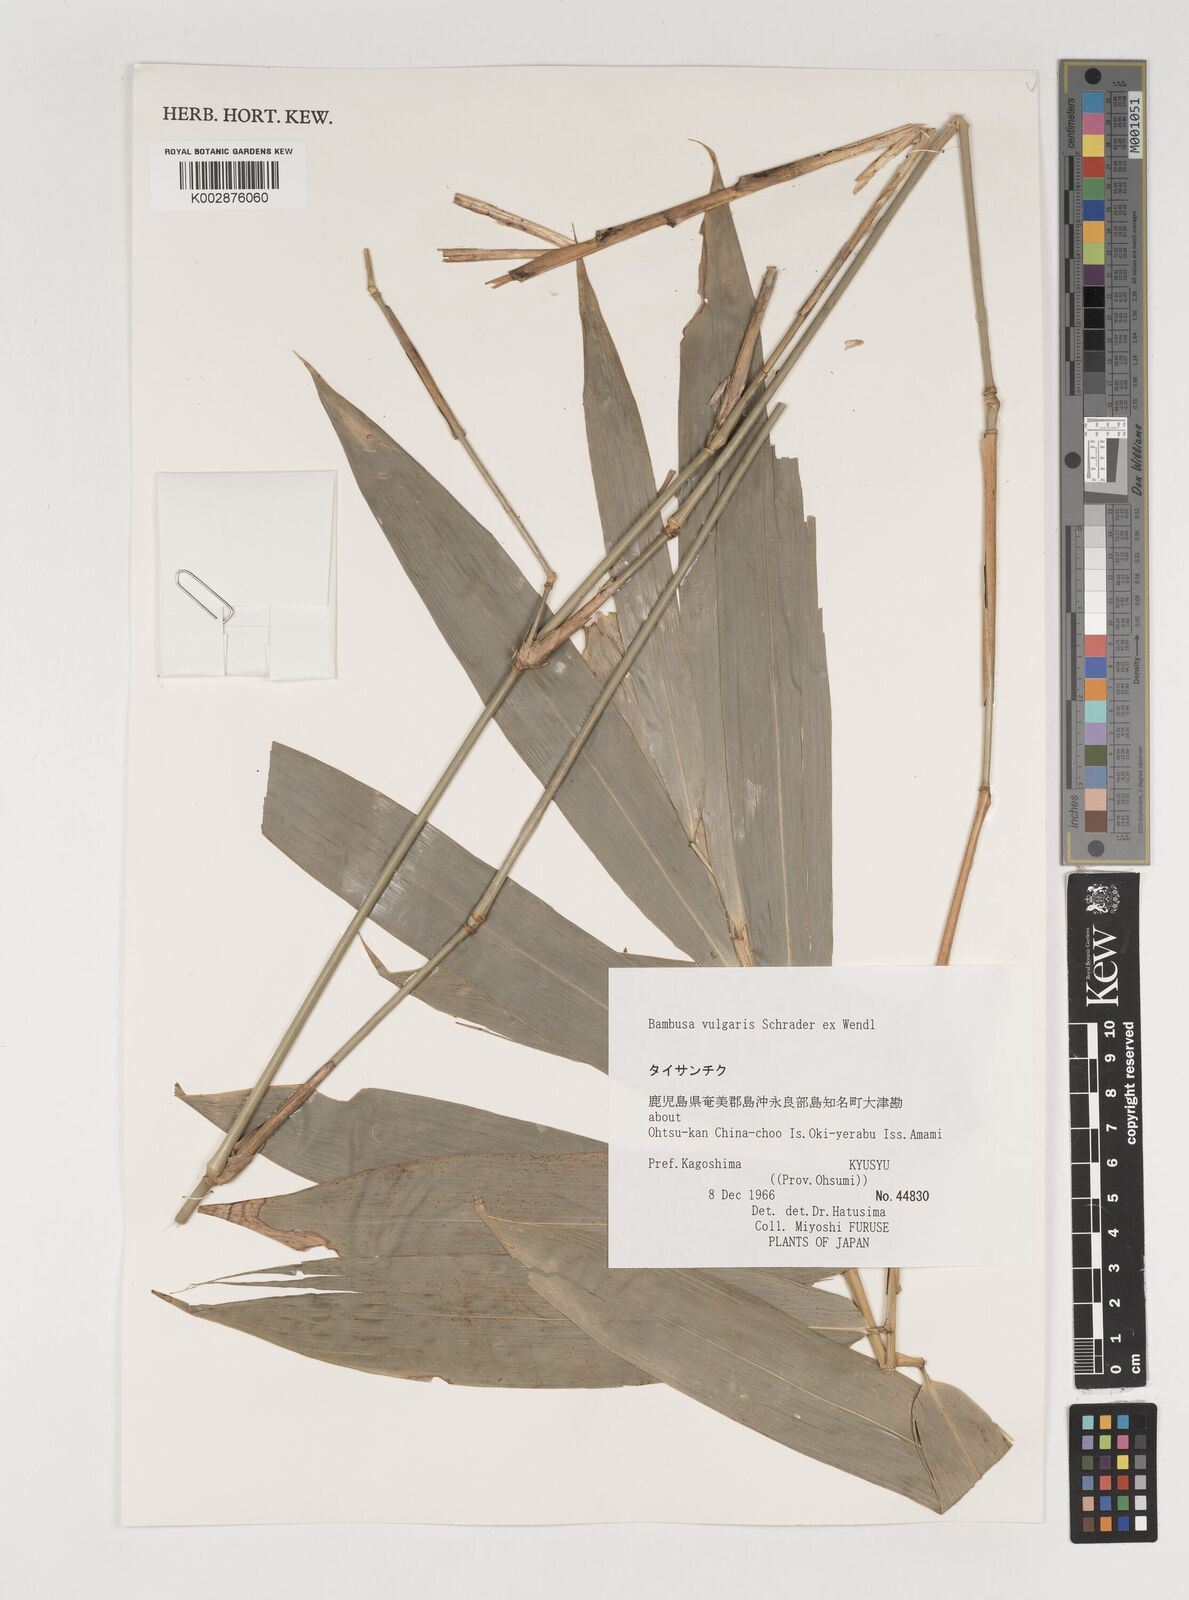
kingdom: Plantae
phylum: Tracheophyta
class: Liliopsida
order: Poales
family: Poaceae
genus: Bambusa
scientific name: Bambusa balcooa
